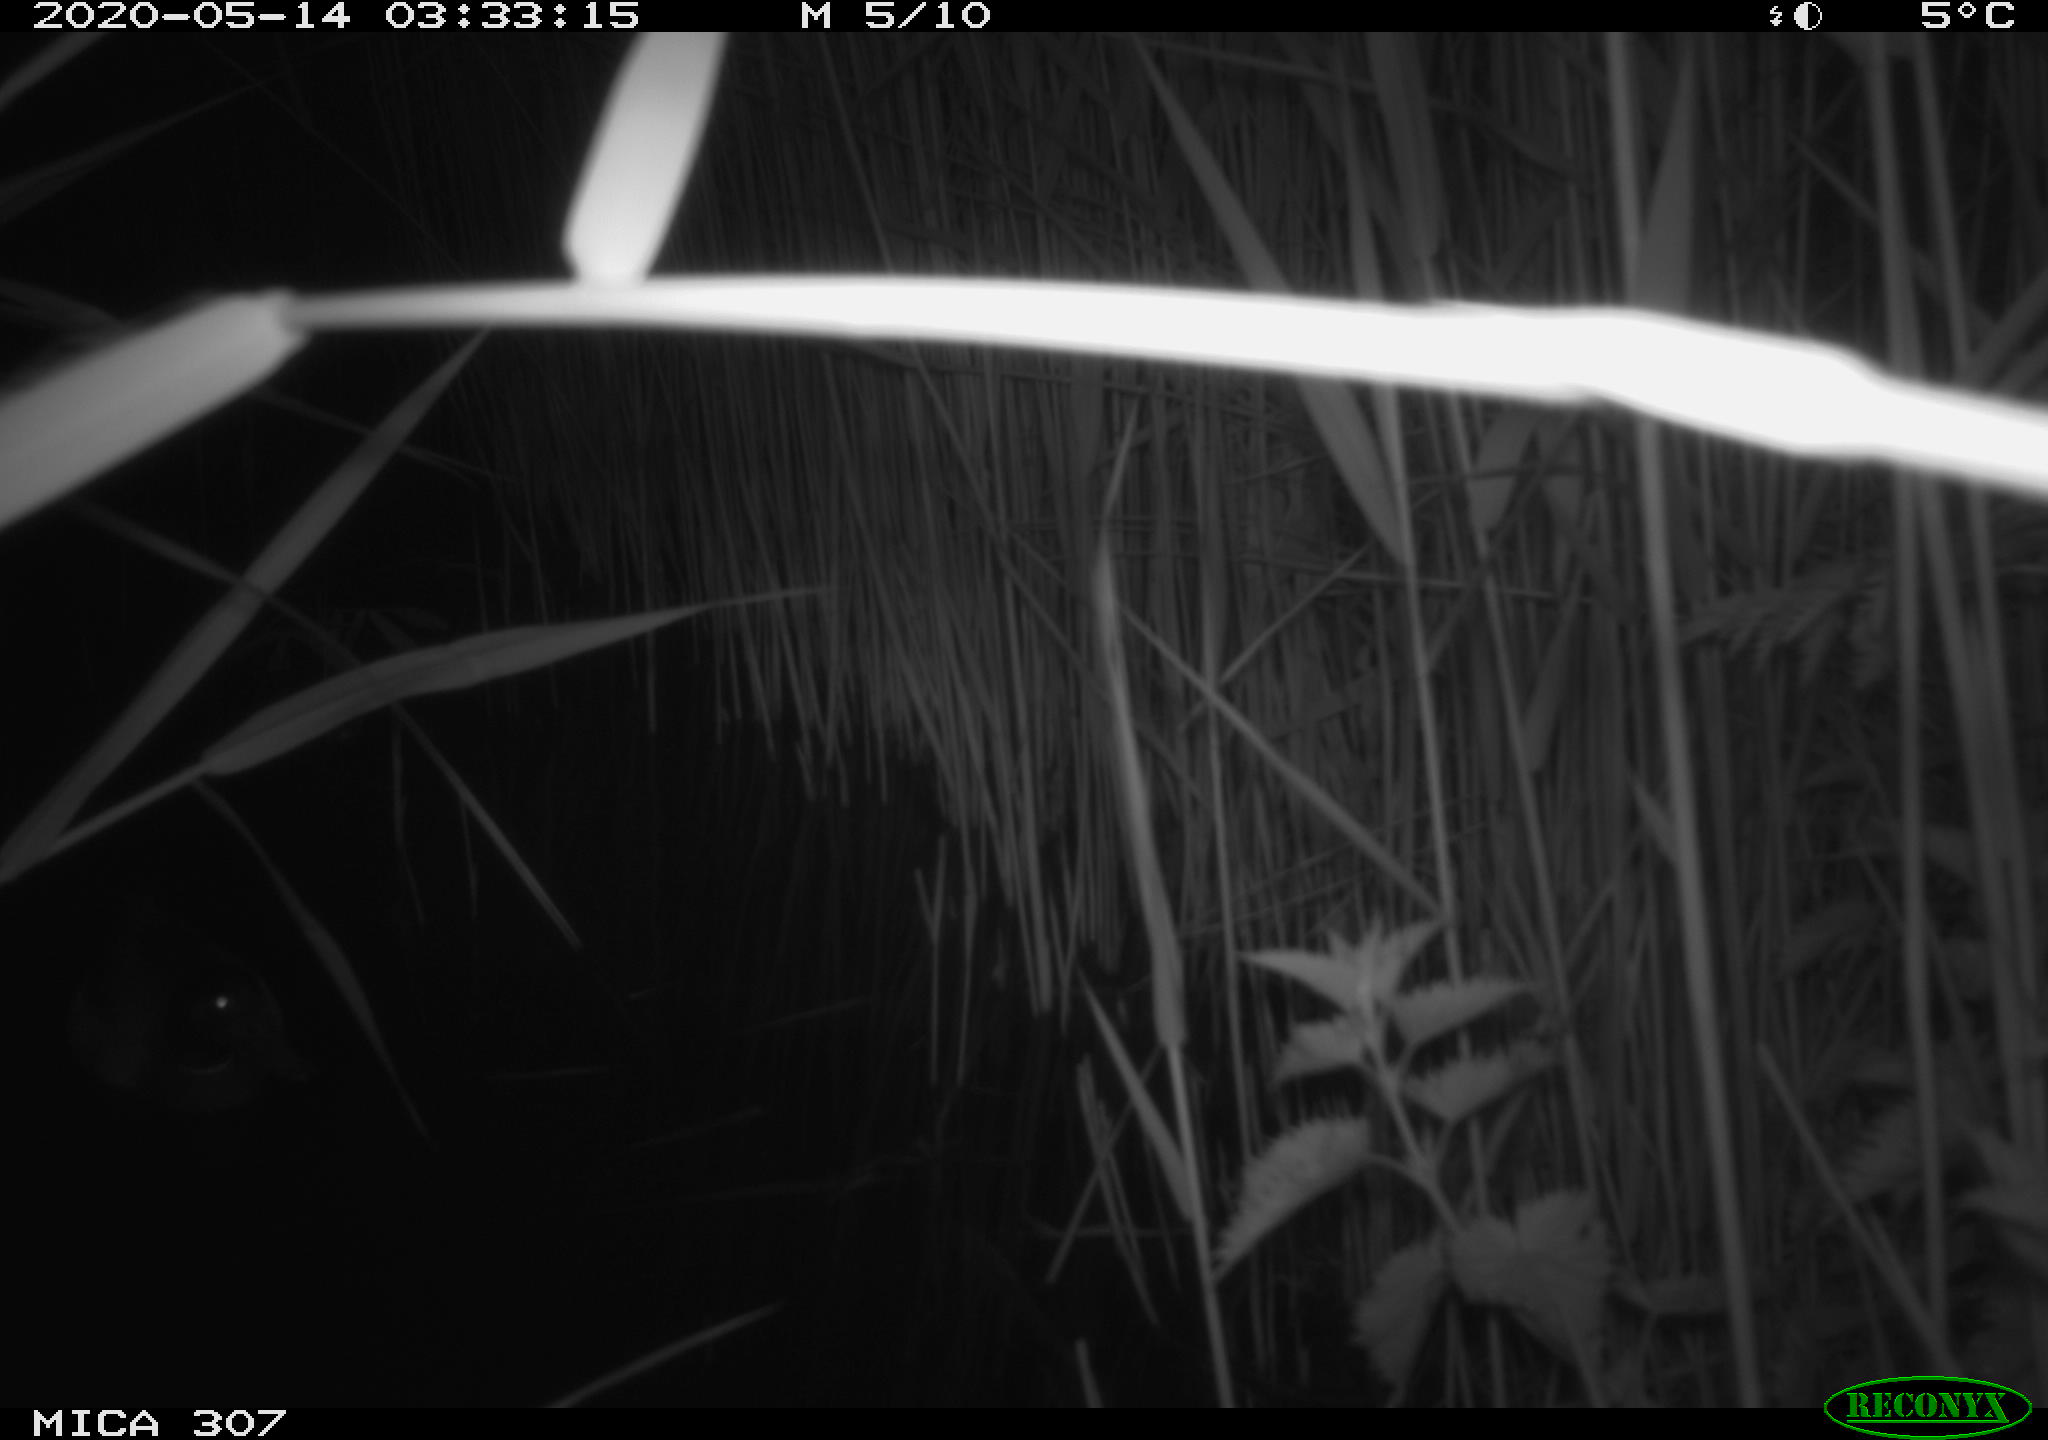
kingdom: Animalia
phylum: Chordata
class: Aves
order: Anseriformes
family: Anatidae
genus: Anas
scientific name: Anas platyrhynchos
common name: Mallard
